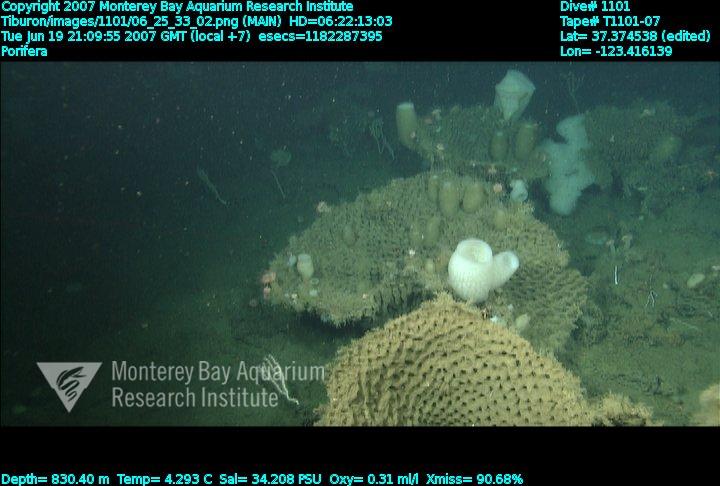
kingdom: Animalia
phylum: Porifera
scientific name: Porifera
